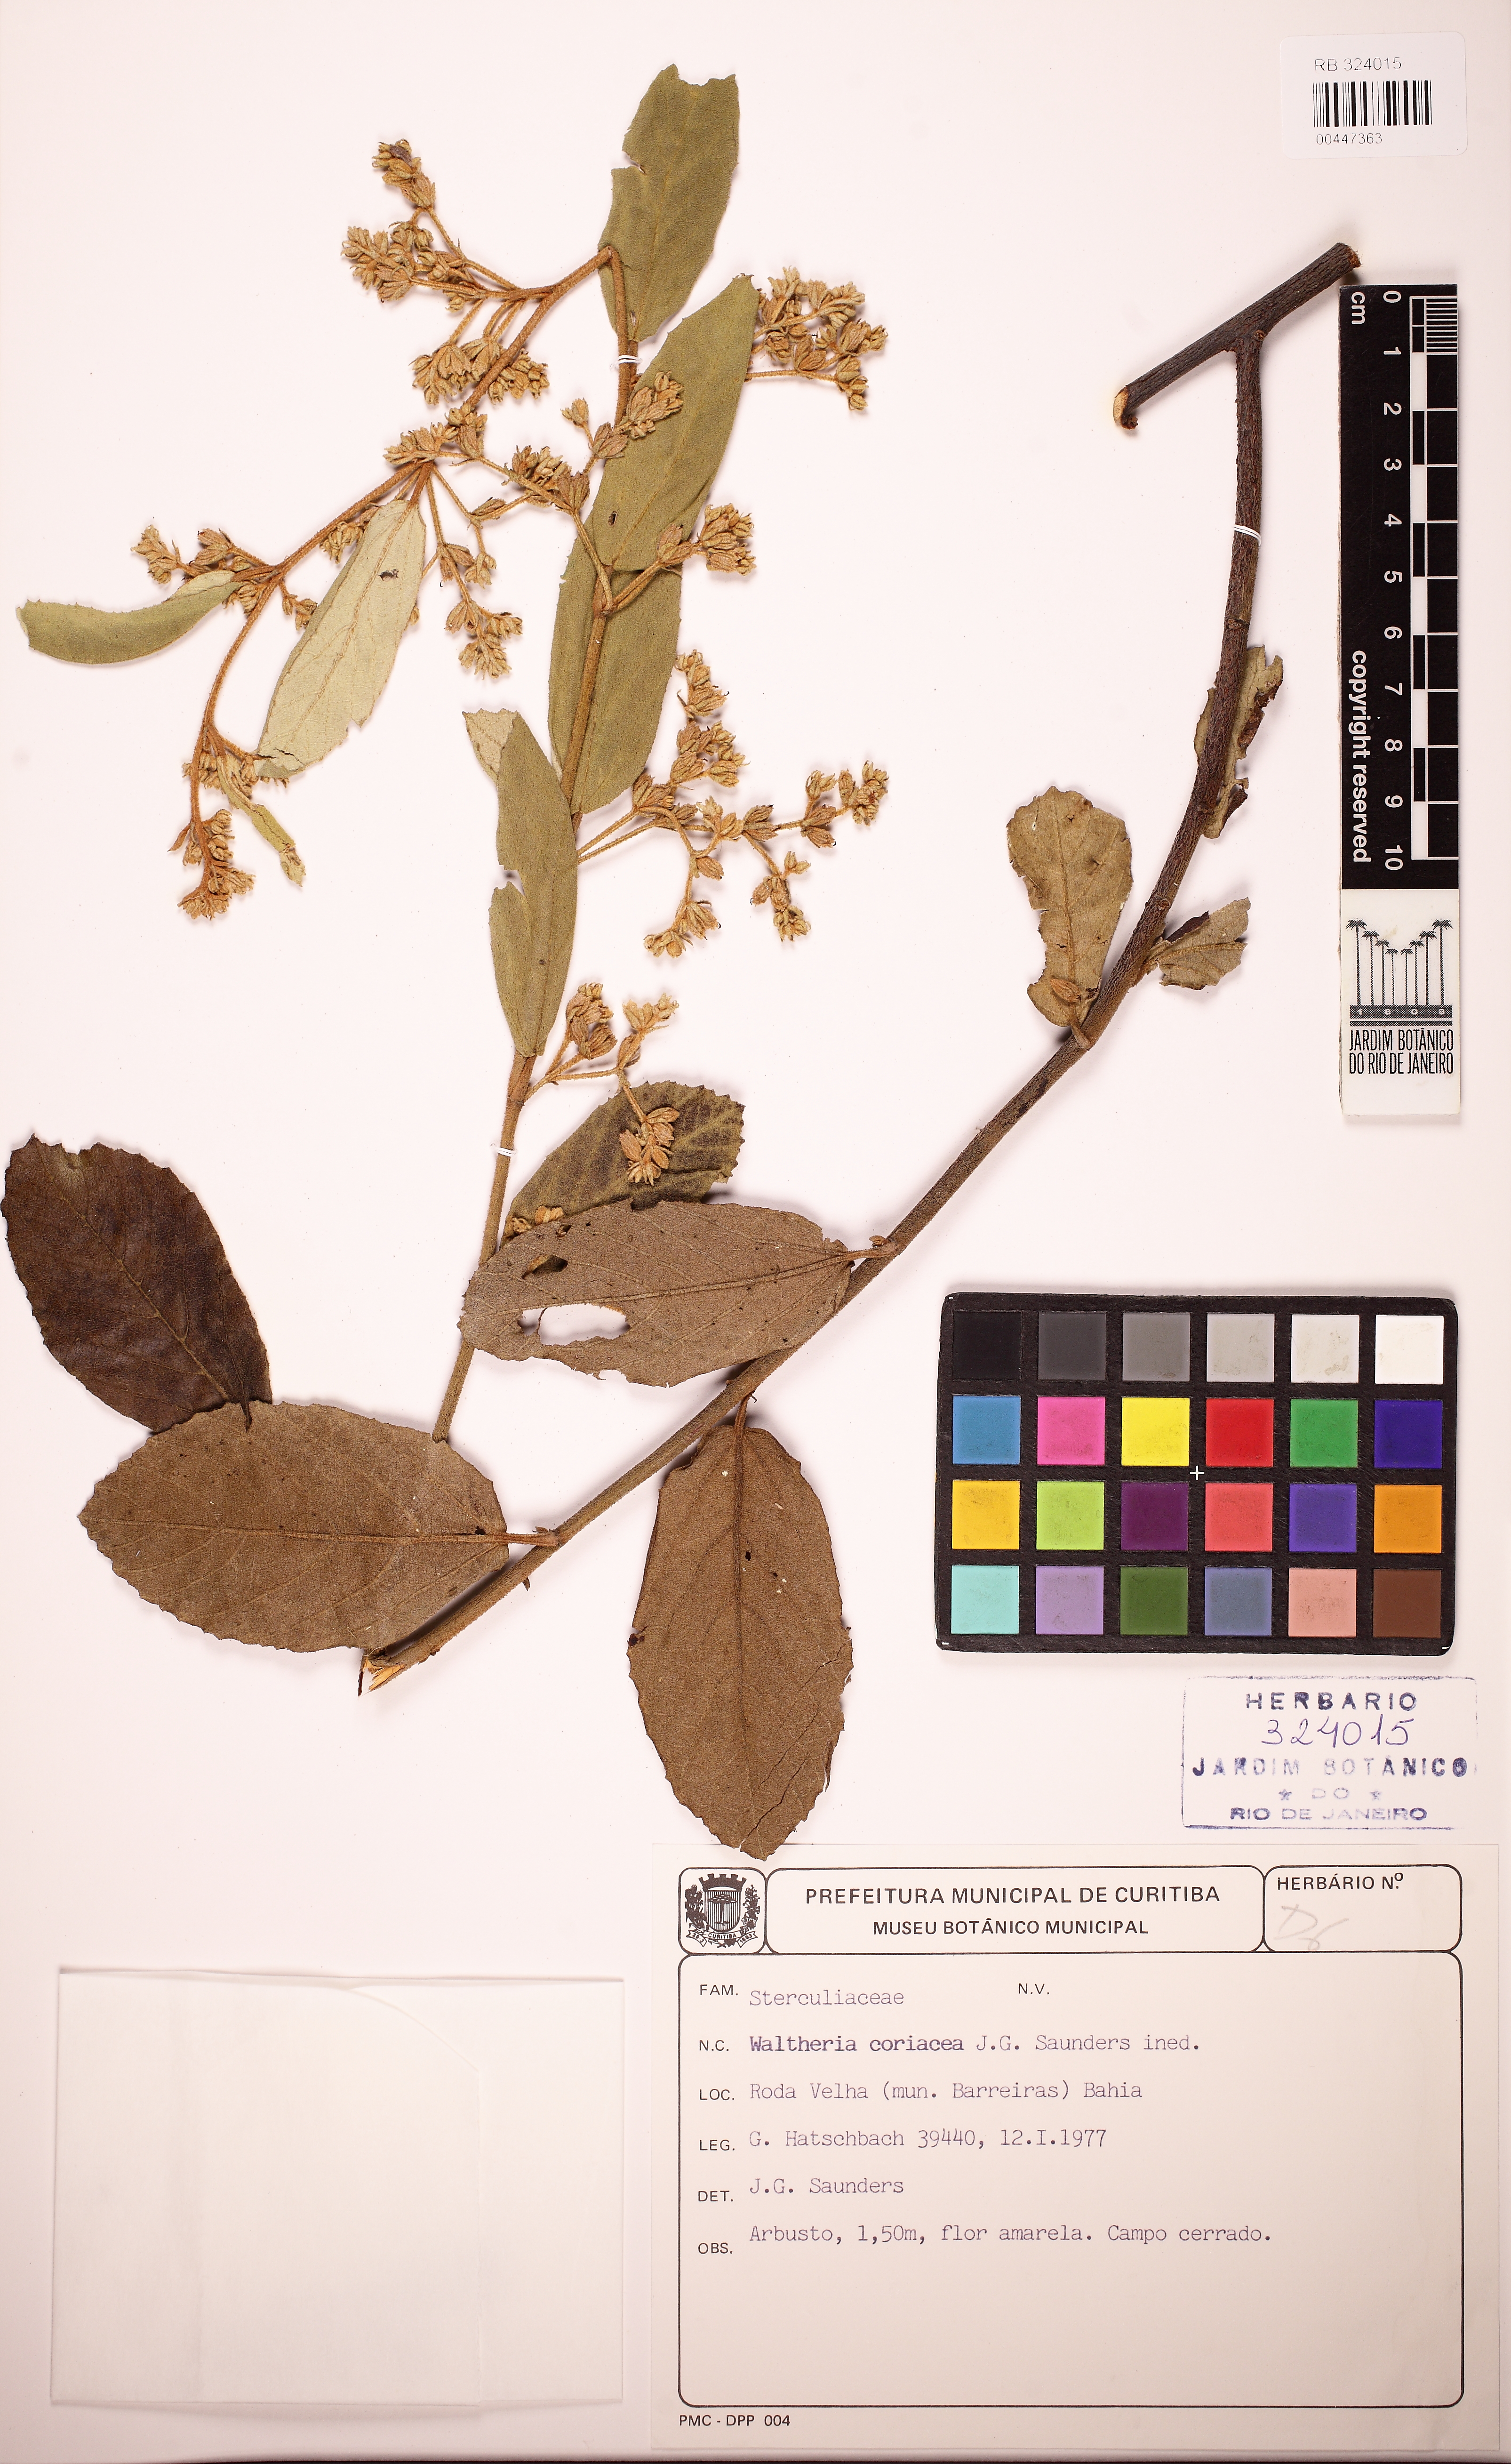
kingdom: Plantae
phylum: Tracheophyta
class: Magnoliopsida
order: Malvales
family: Malvaceae
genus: Waltheria
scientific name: Waltheria coriacea
